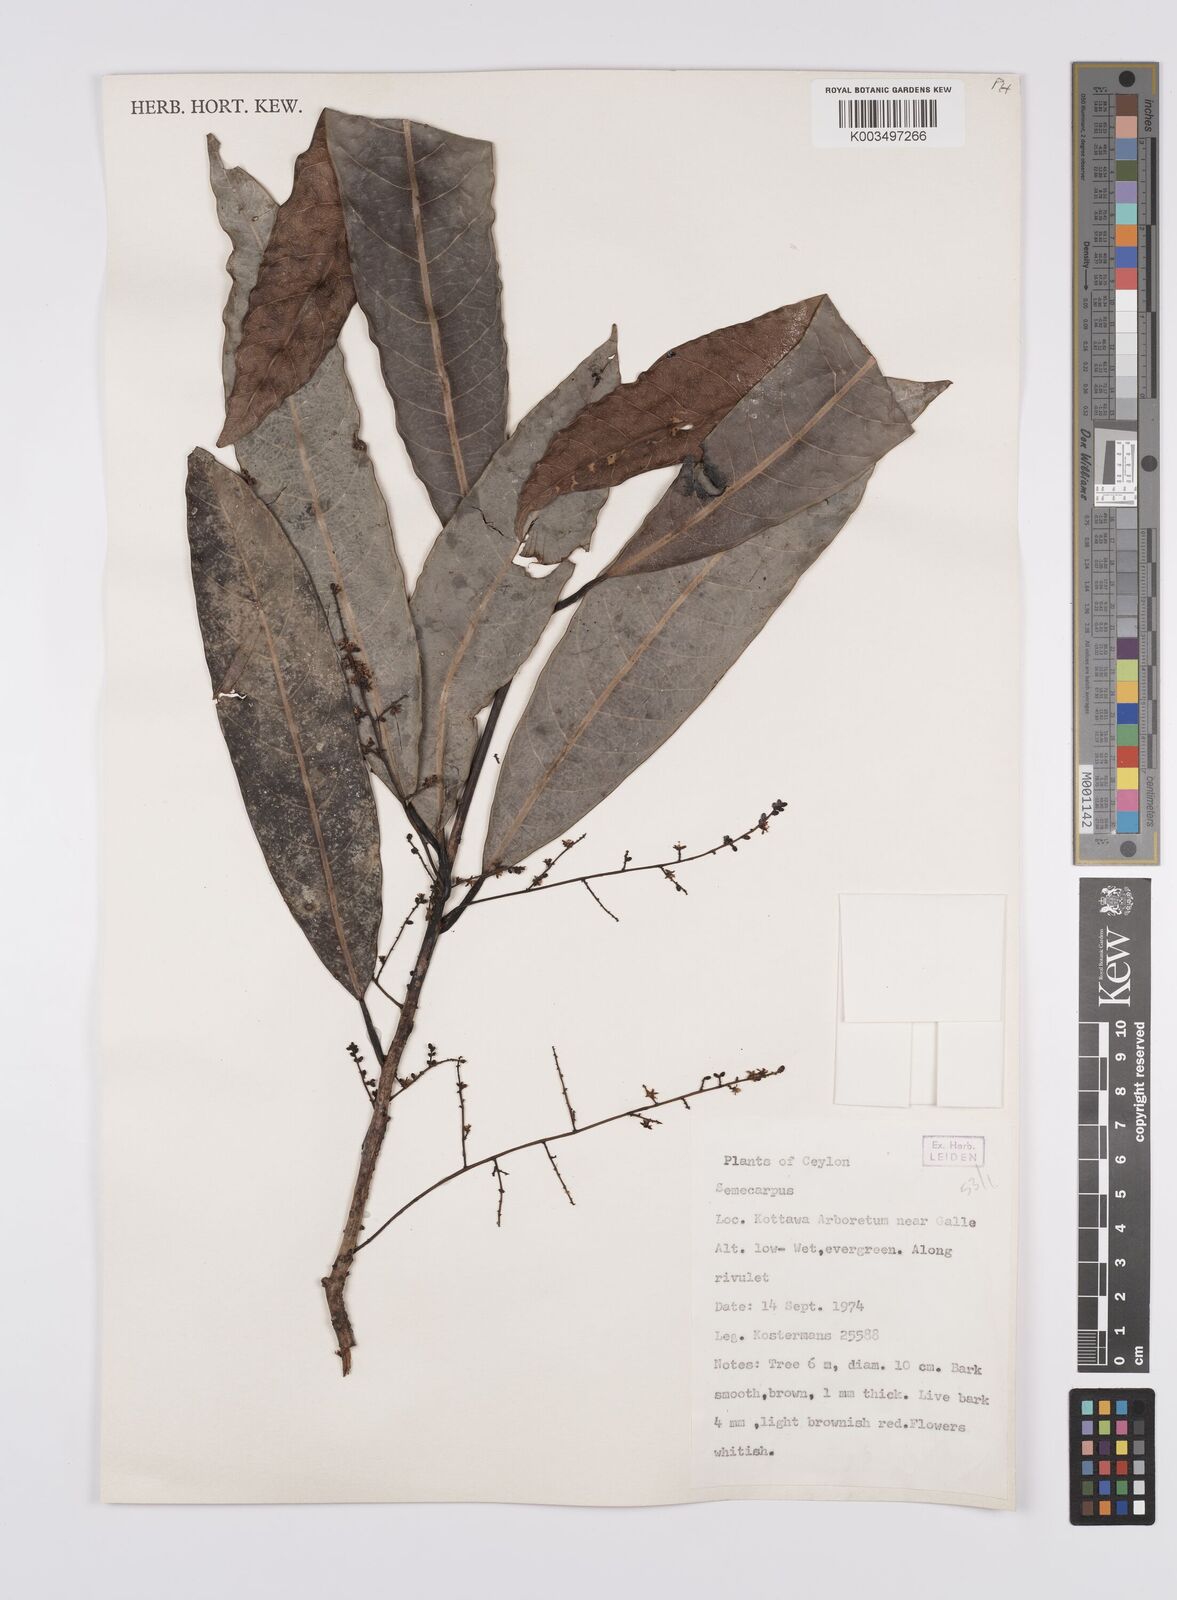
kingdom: Plantae
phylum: Tracheophyta
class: Magnoliopsida
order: Sapindales
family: Anacardiaceae
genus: Semecarpus
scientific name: Semecarpus
